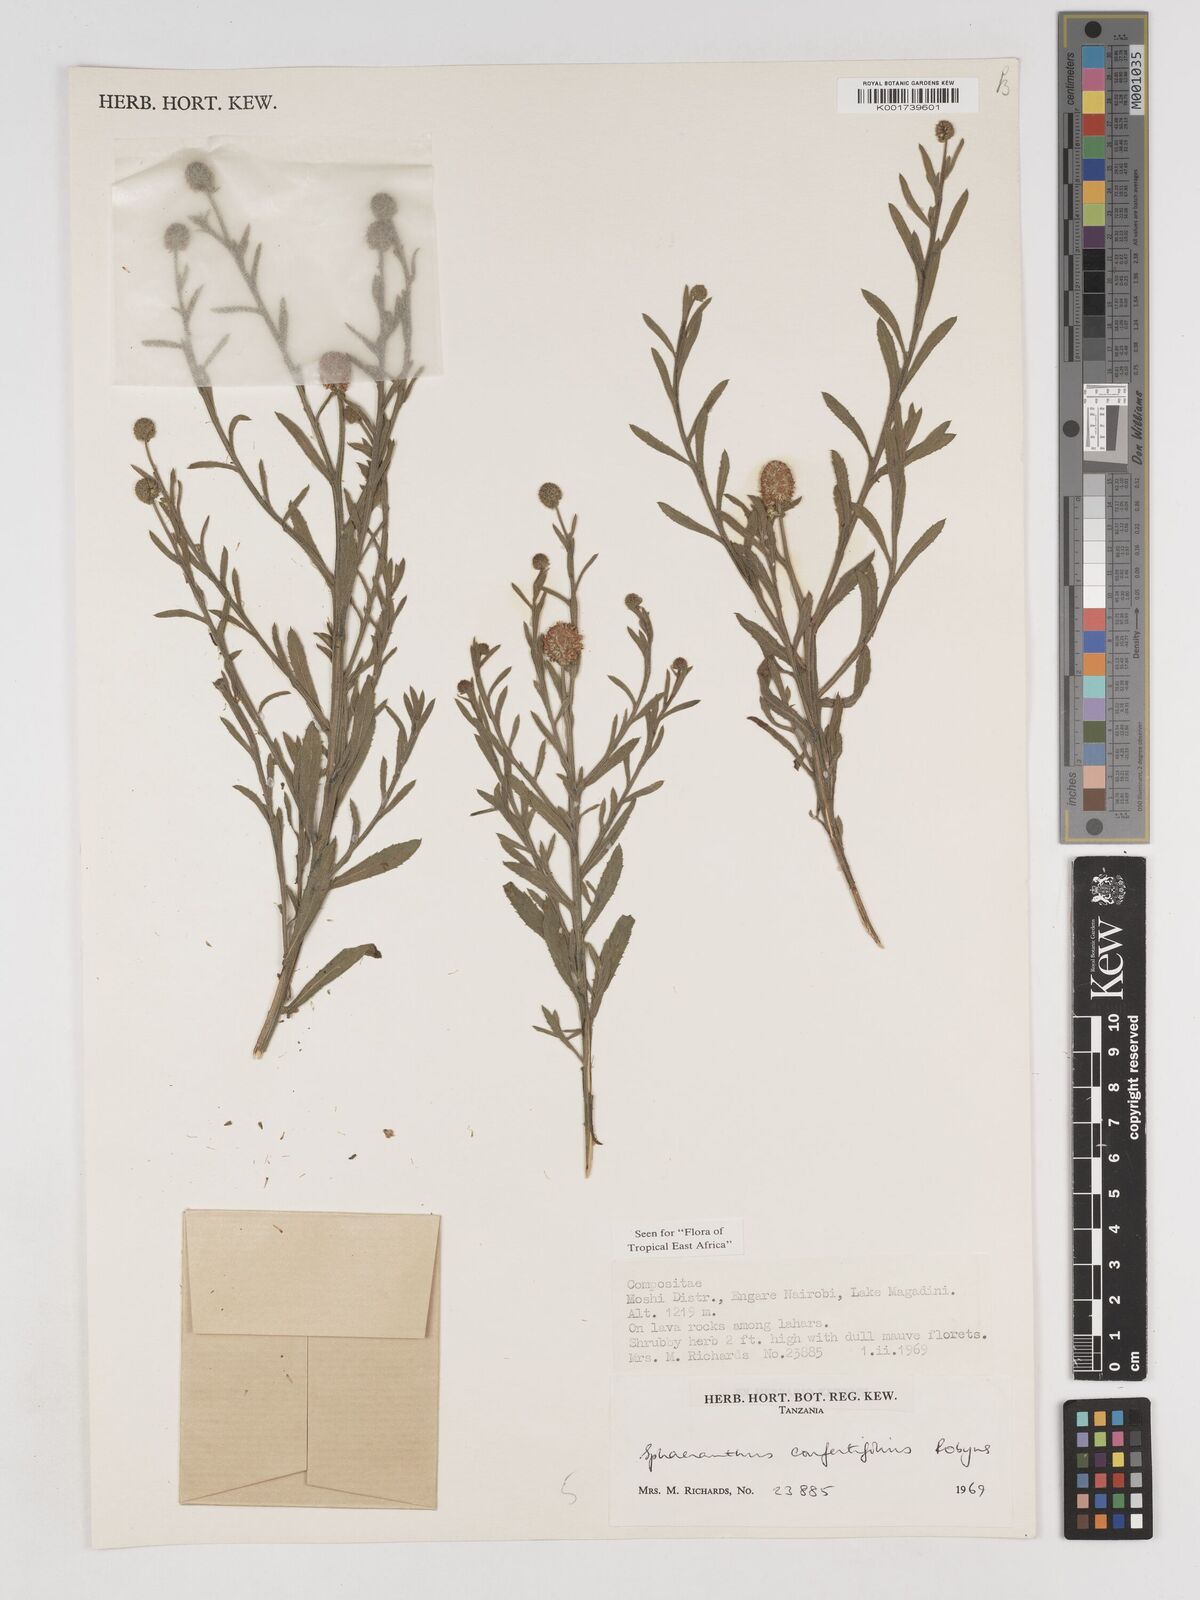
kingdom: Plantae
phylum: Tracheophyta
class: Magnoliopsida
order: Asterales
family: Asteraceae
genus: Sphaeranthus
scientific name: Sphaeranthus confertifolius
